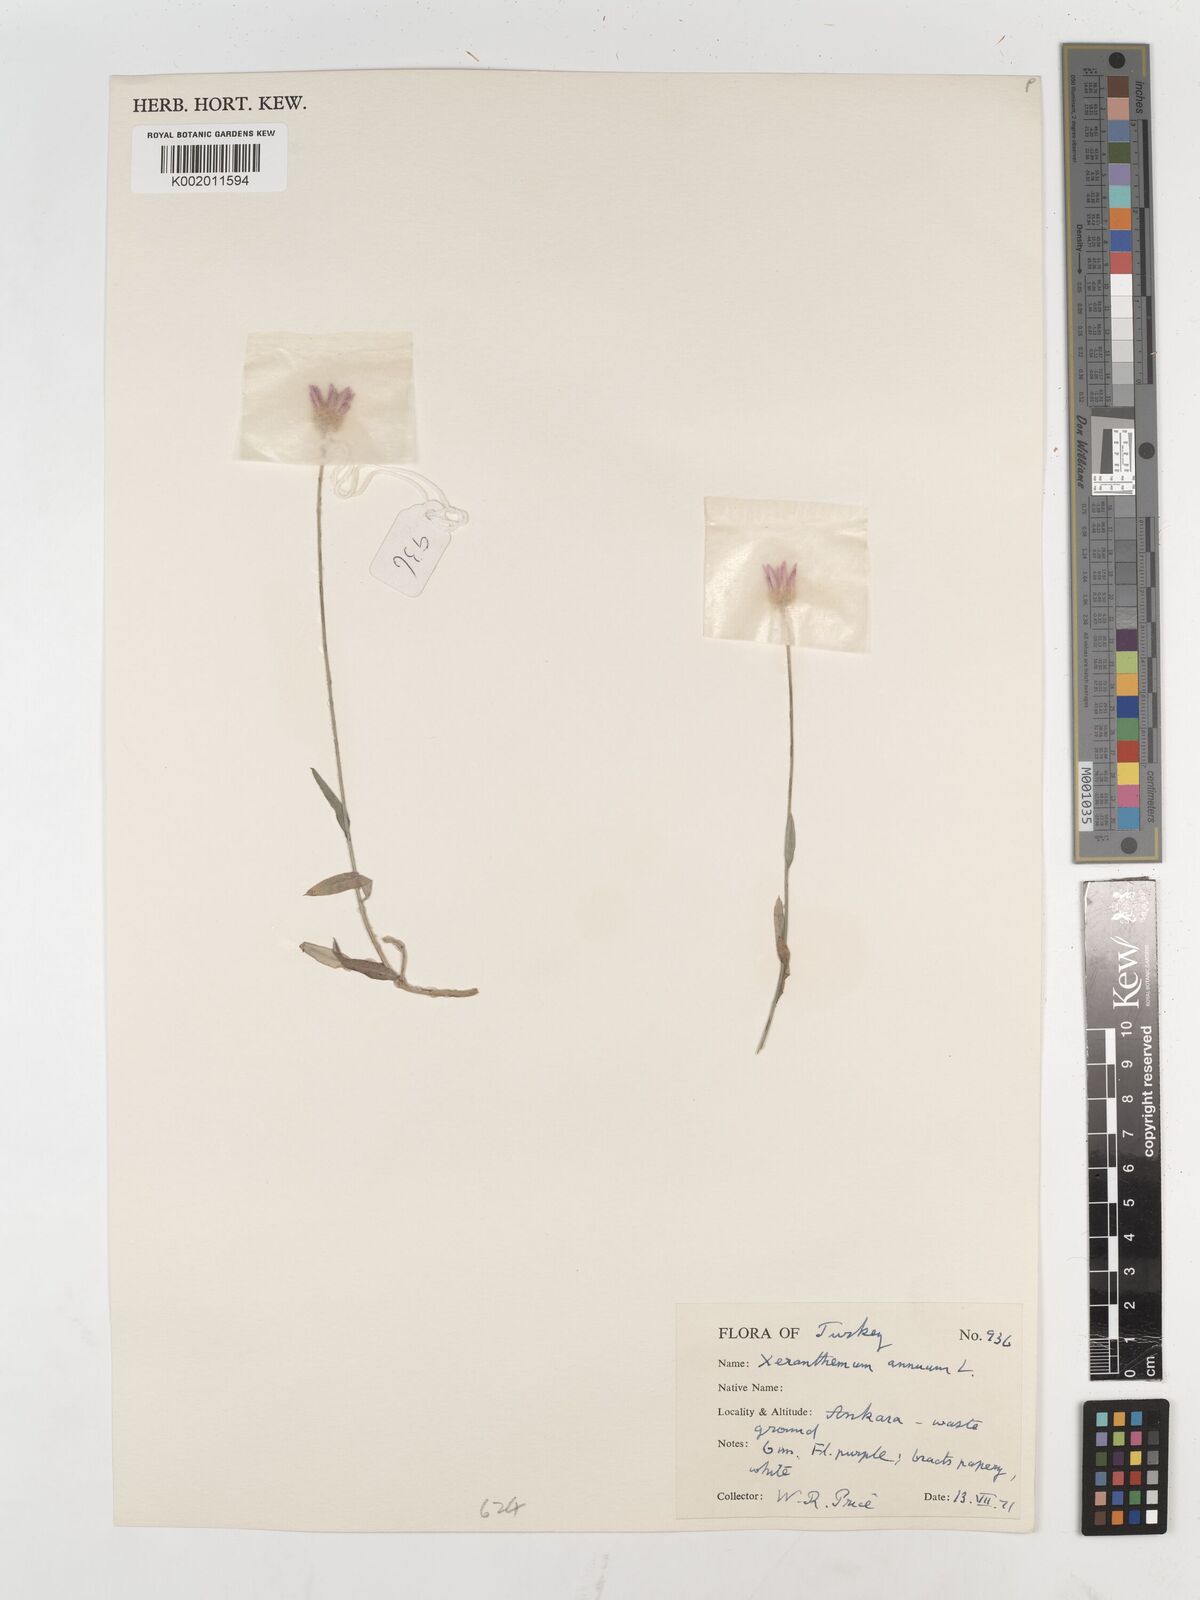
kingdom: Plantae
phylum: Tracheophyta
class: Magnoliopsida
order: Asterales
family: Asteraceae
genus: Xeranthemum
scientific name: Xeranthemum annuum
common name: Immortelle
